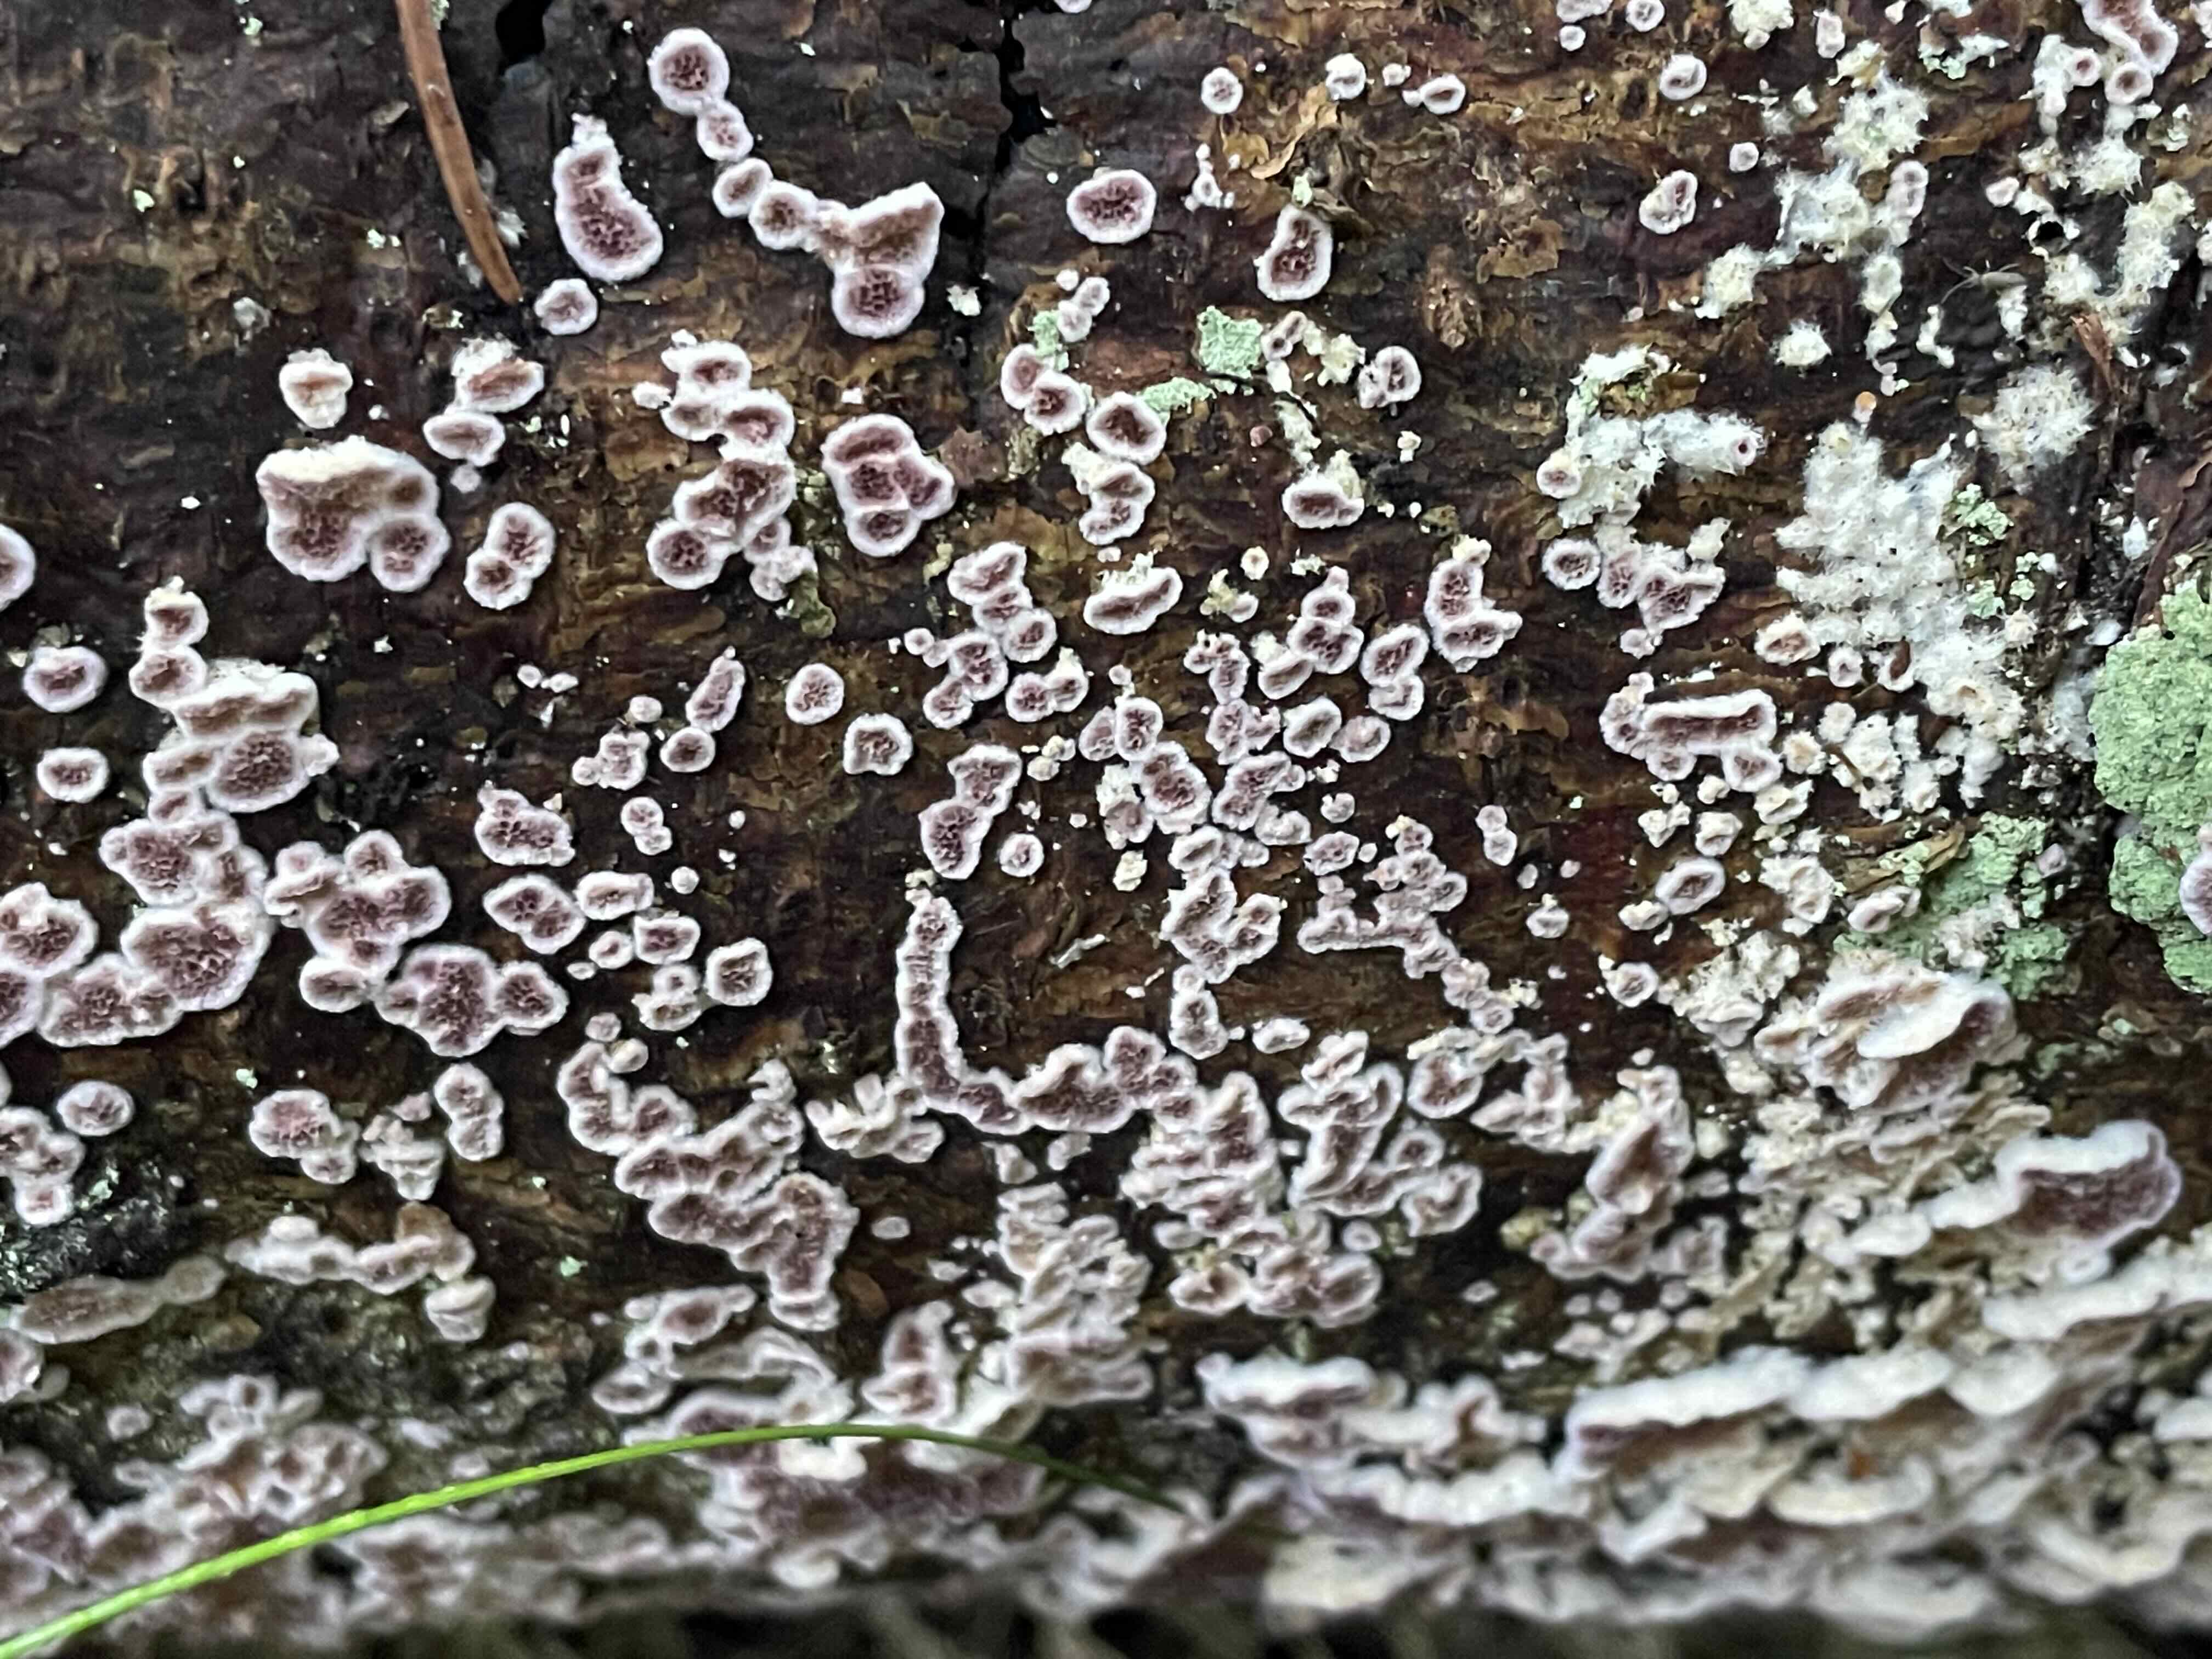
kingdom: Fungi
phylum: Basidiomycota
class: Agaricomycetes
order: Hymenochaetales
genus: Trichaptum
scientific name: Trichaptum abietinum
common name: almindelig violporesvamp
